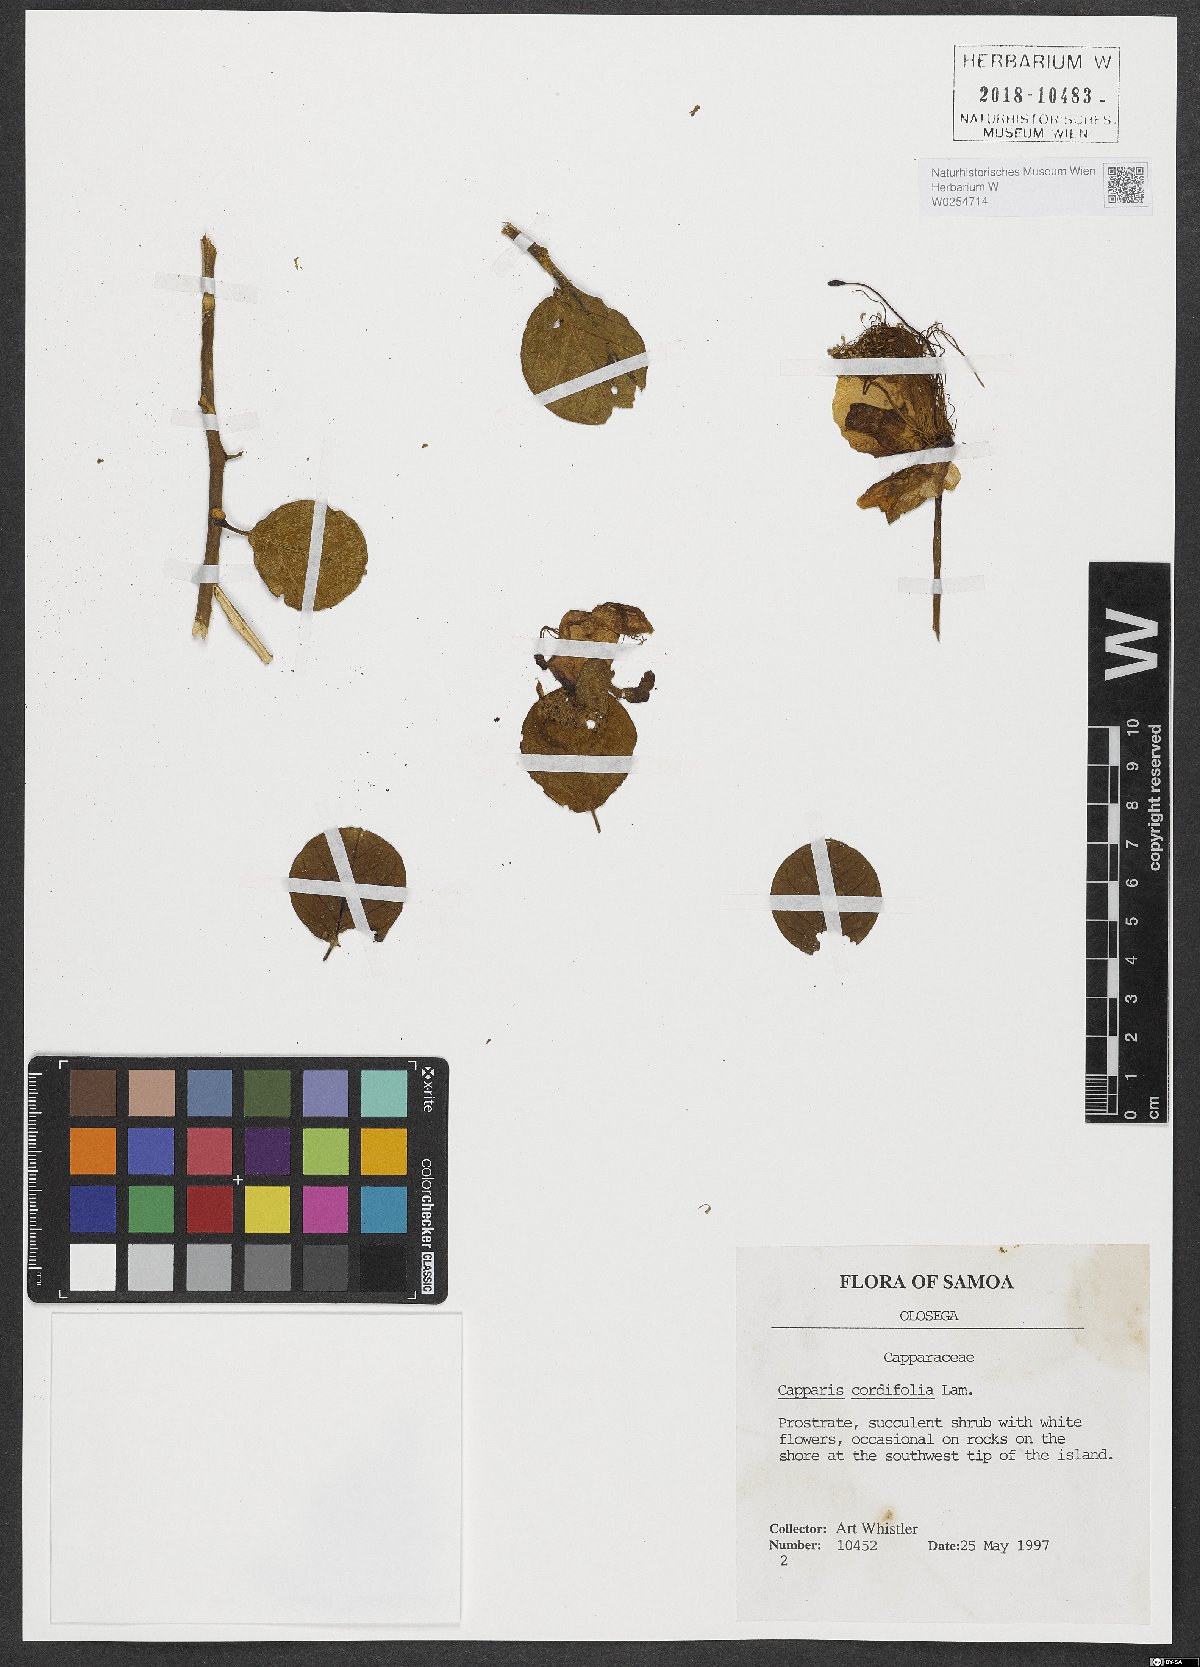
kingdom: Plantae
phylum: Tracheophyta
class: Magnoliopsida
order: Brassicales
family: Capparaceae
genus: Capparis
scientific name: Capparis spinosa
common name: Caper
